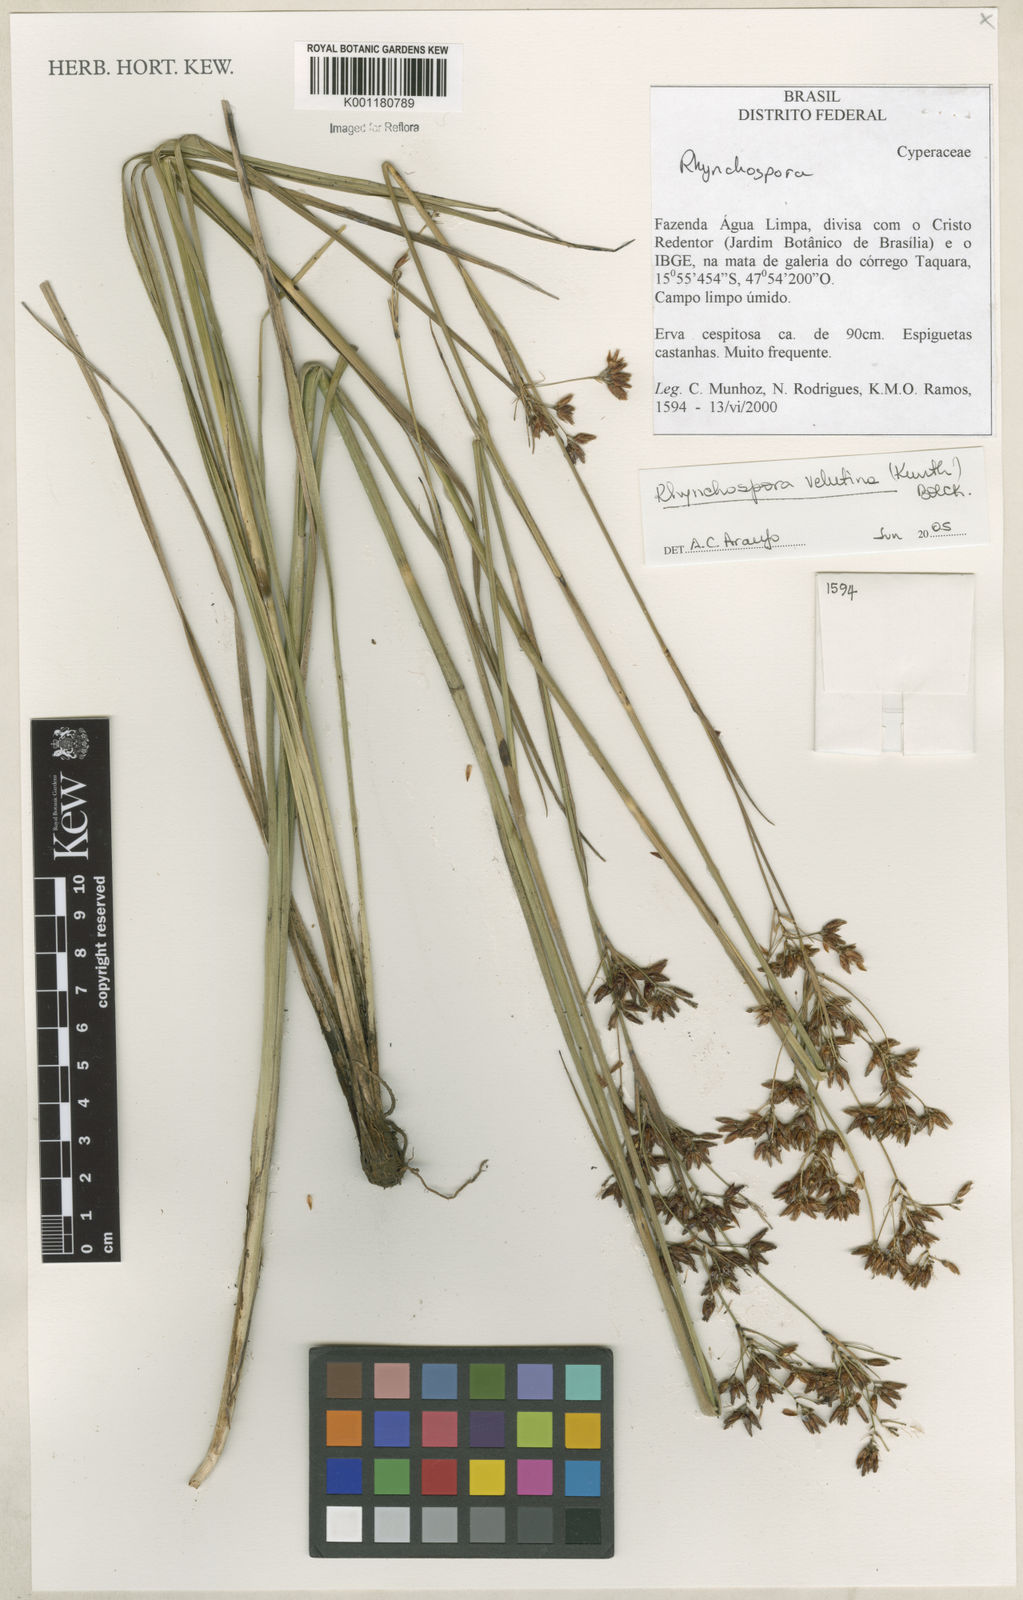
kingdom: Plantae
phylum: Tracheophyta
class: Liliopsida
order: Poales
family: Cyperaceae
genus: Rhynchospora
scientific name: Rhynchospora velutina
